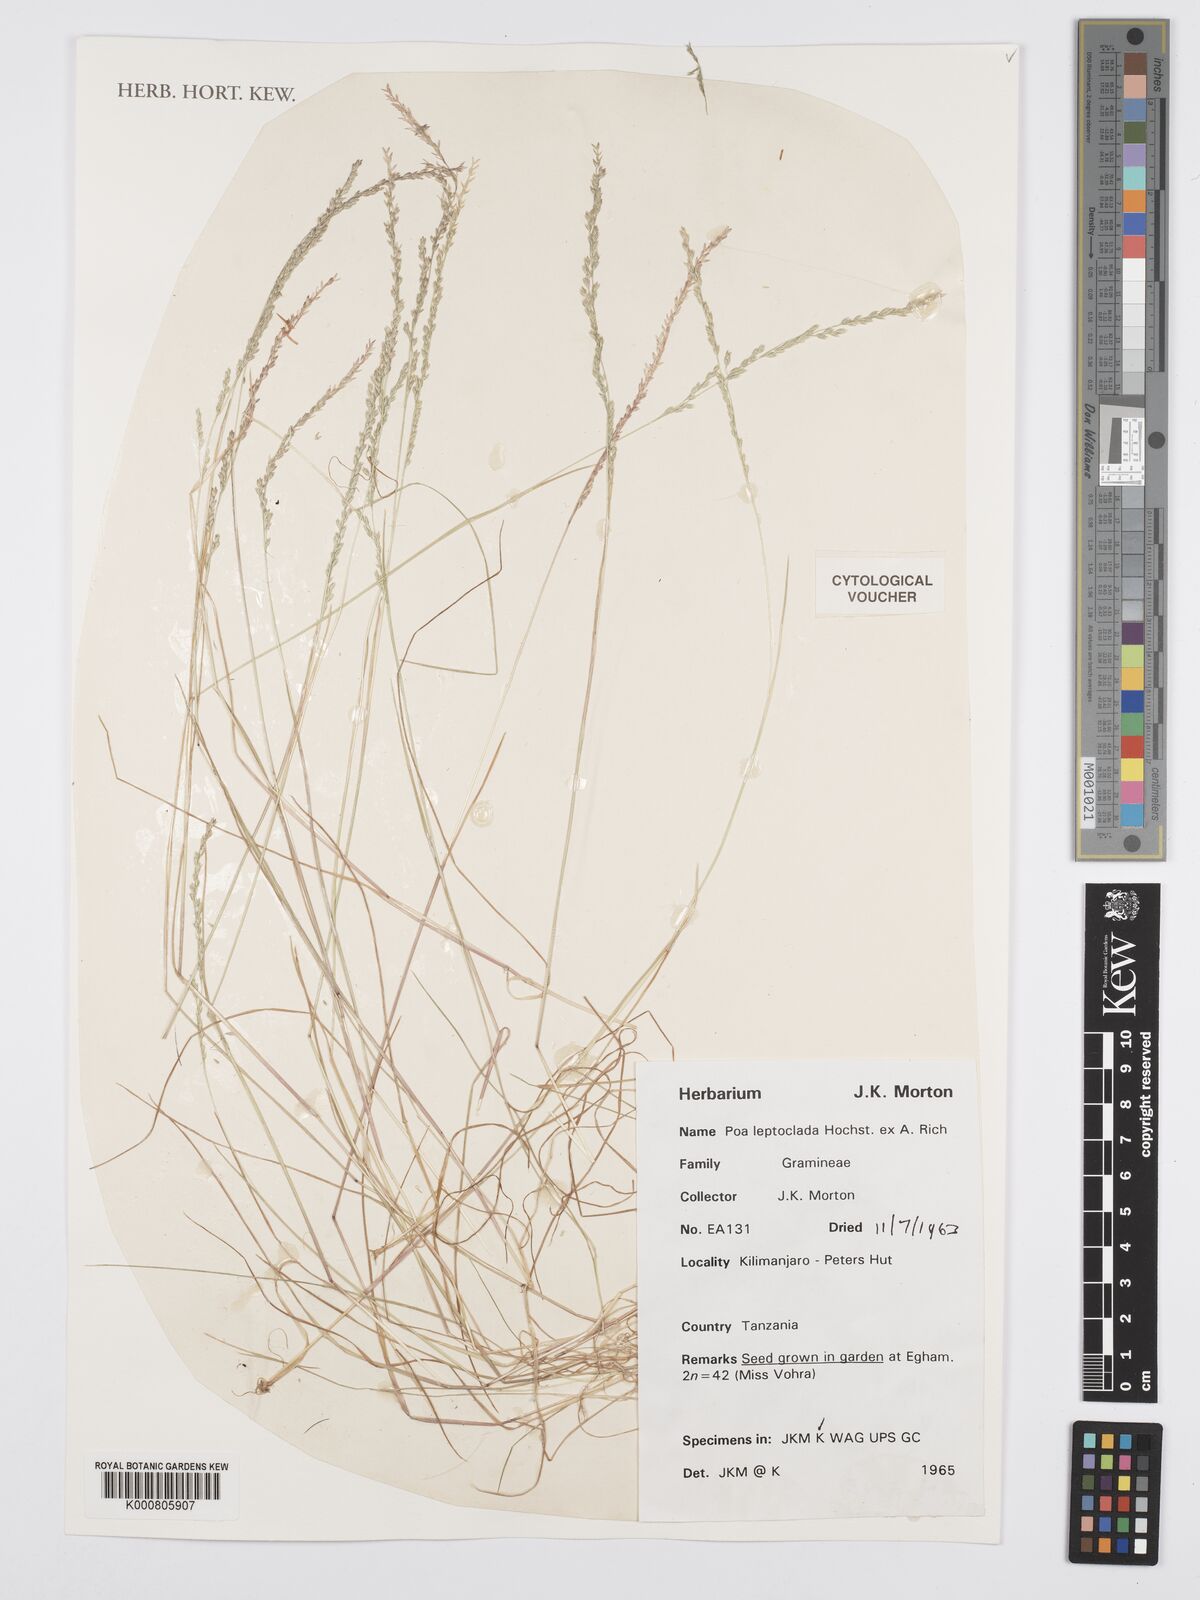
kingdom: Plantae
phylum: Tracheophyta
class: Liliopsida
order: Poales
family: Poaceae
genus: Poa
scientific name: Poa leptoclada
